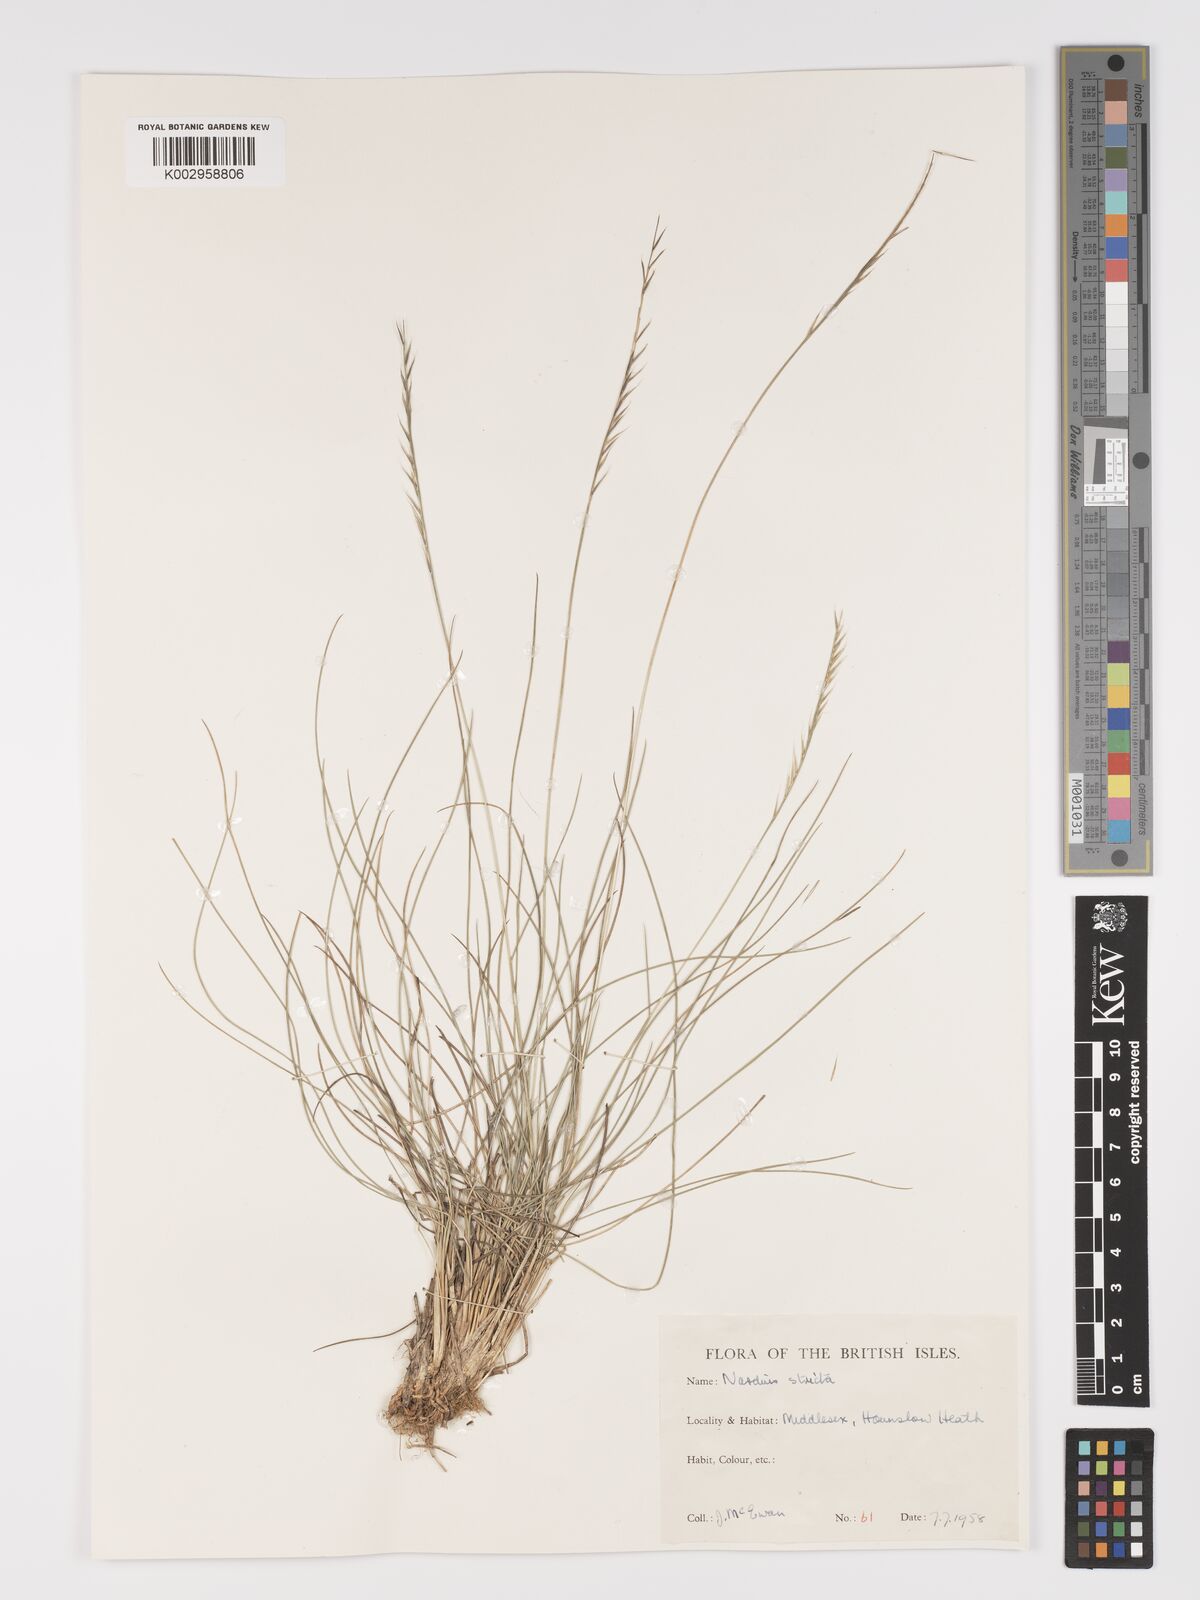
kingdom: Plantae
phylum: Tracheophyta
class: Liliopsida
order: Poales
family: Poaceae
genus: Nardus
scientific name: Nardus stricta
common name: Mat-grass
